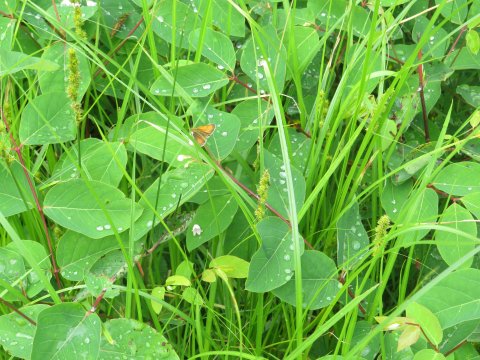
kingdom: Animalia
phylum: Arthropoda
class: Insecta
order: Lepidoptera
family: Hesperiidae
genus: Atrytone
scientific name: Atrytone delaware
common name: Delaware Skipper
